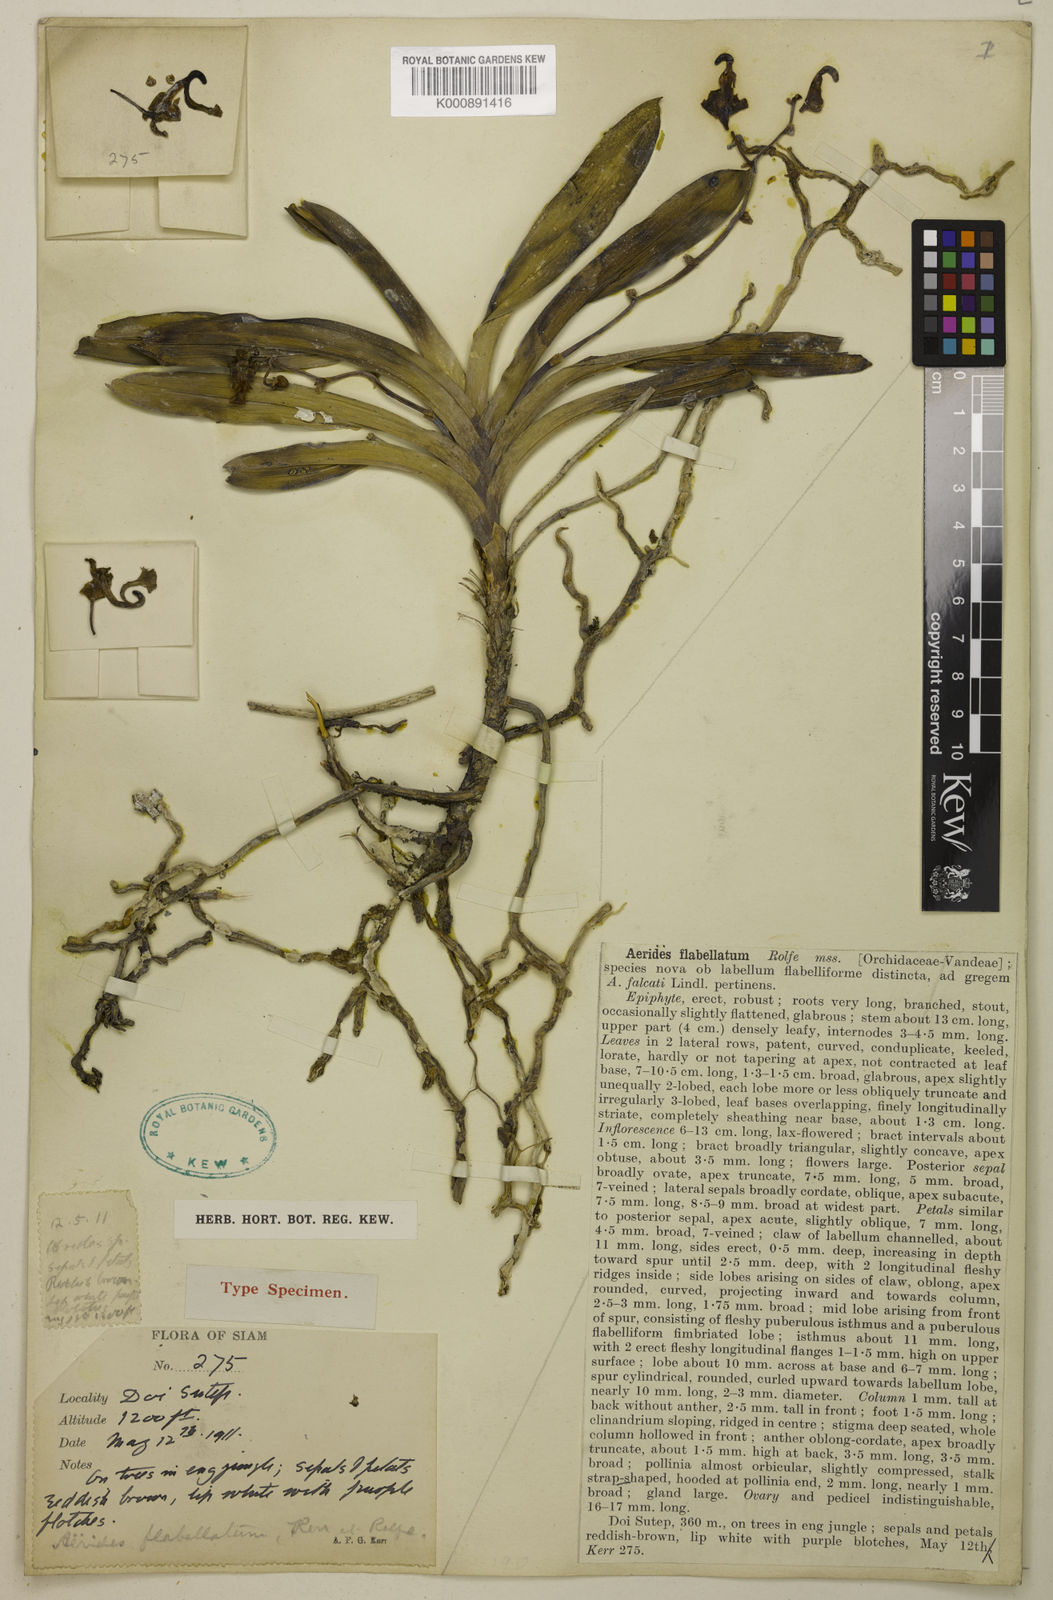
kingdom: Plantae
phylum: Tracheophyta
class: Liliopsida
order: Asparagales
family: Orchidaceae
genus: Vanda
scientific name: Vanda flabellata
